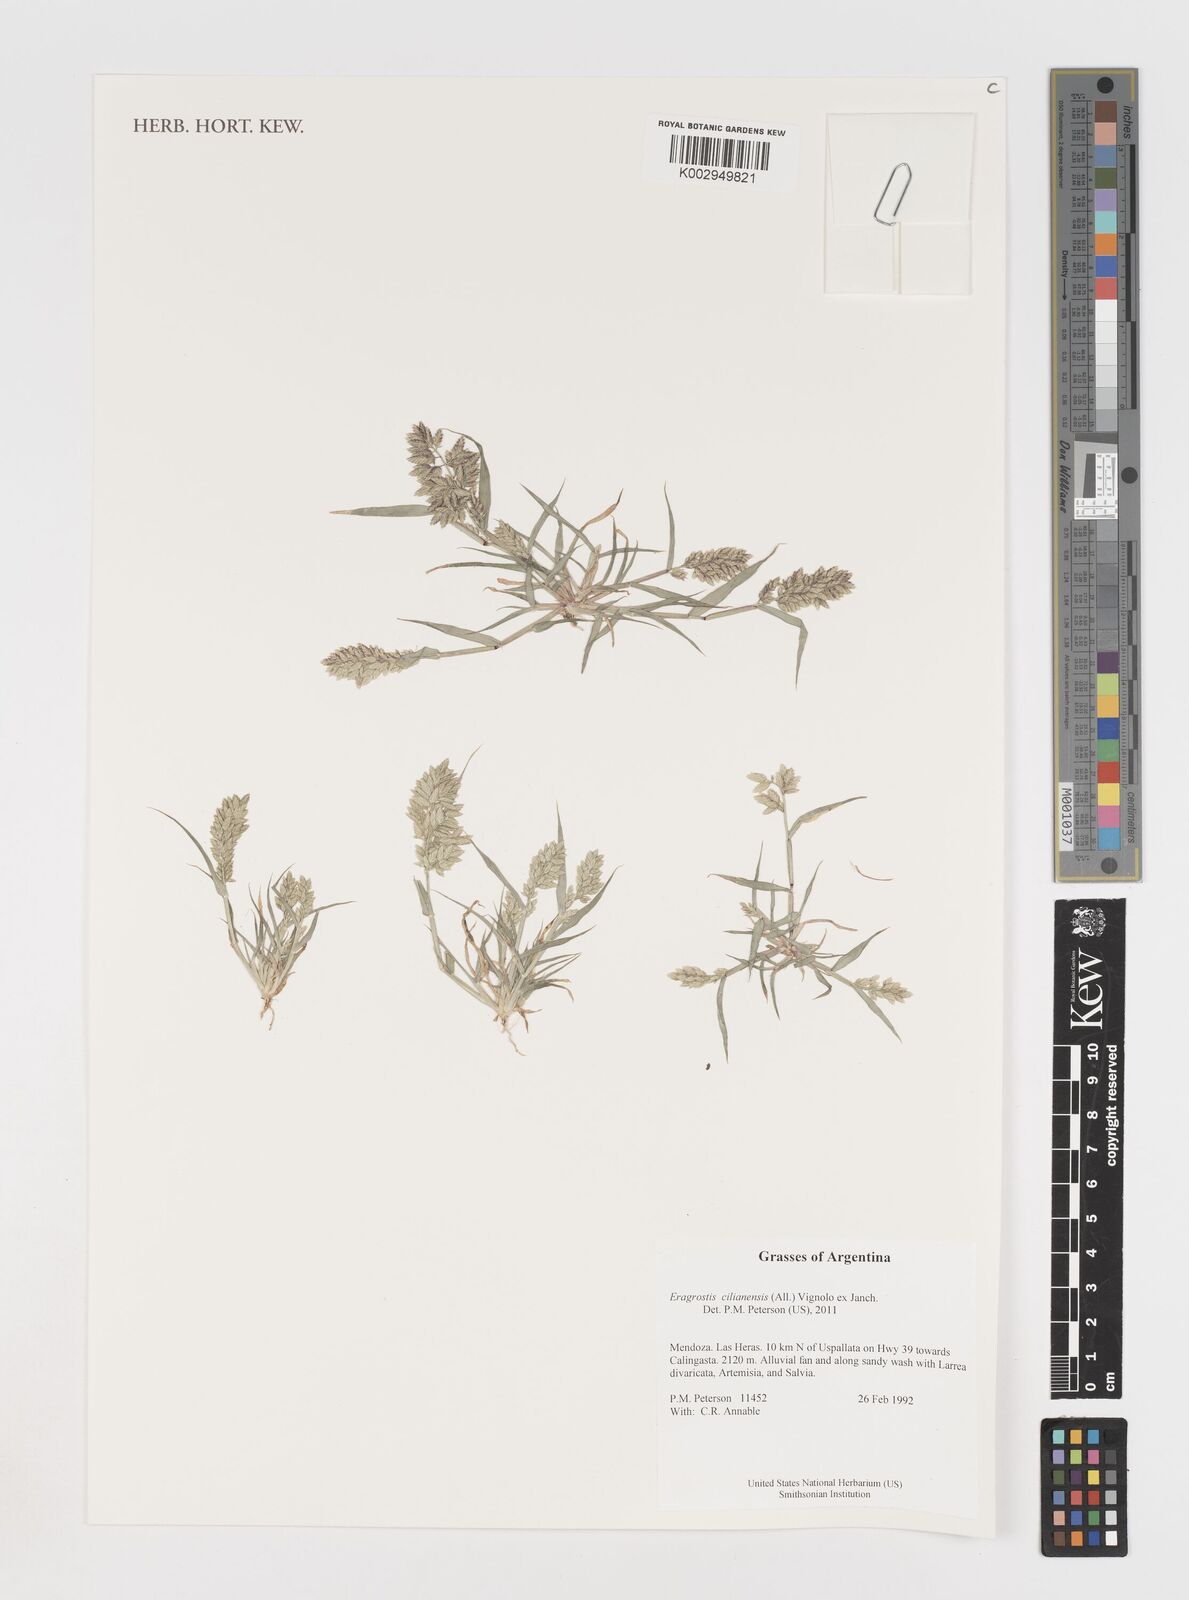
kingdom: Plantae
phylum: Tracheophyta
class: Liliopsida
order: Poales
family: Poaceae
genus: Eragrostis
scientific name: Eragrostis cilianensis
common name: Stinkgrass
